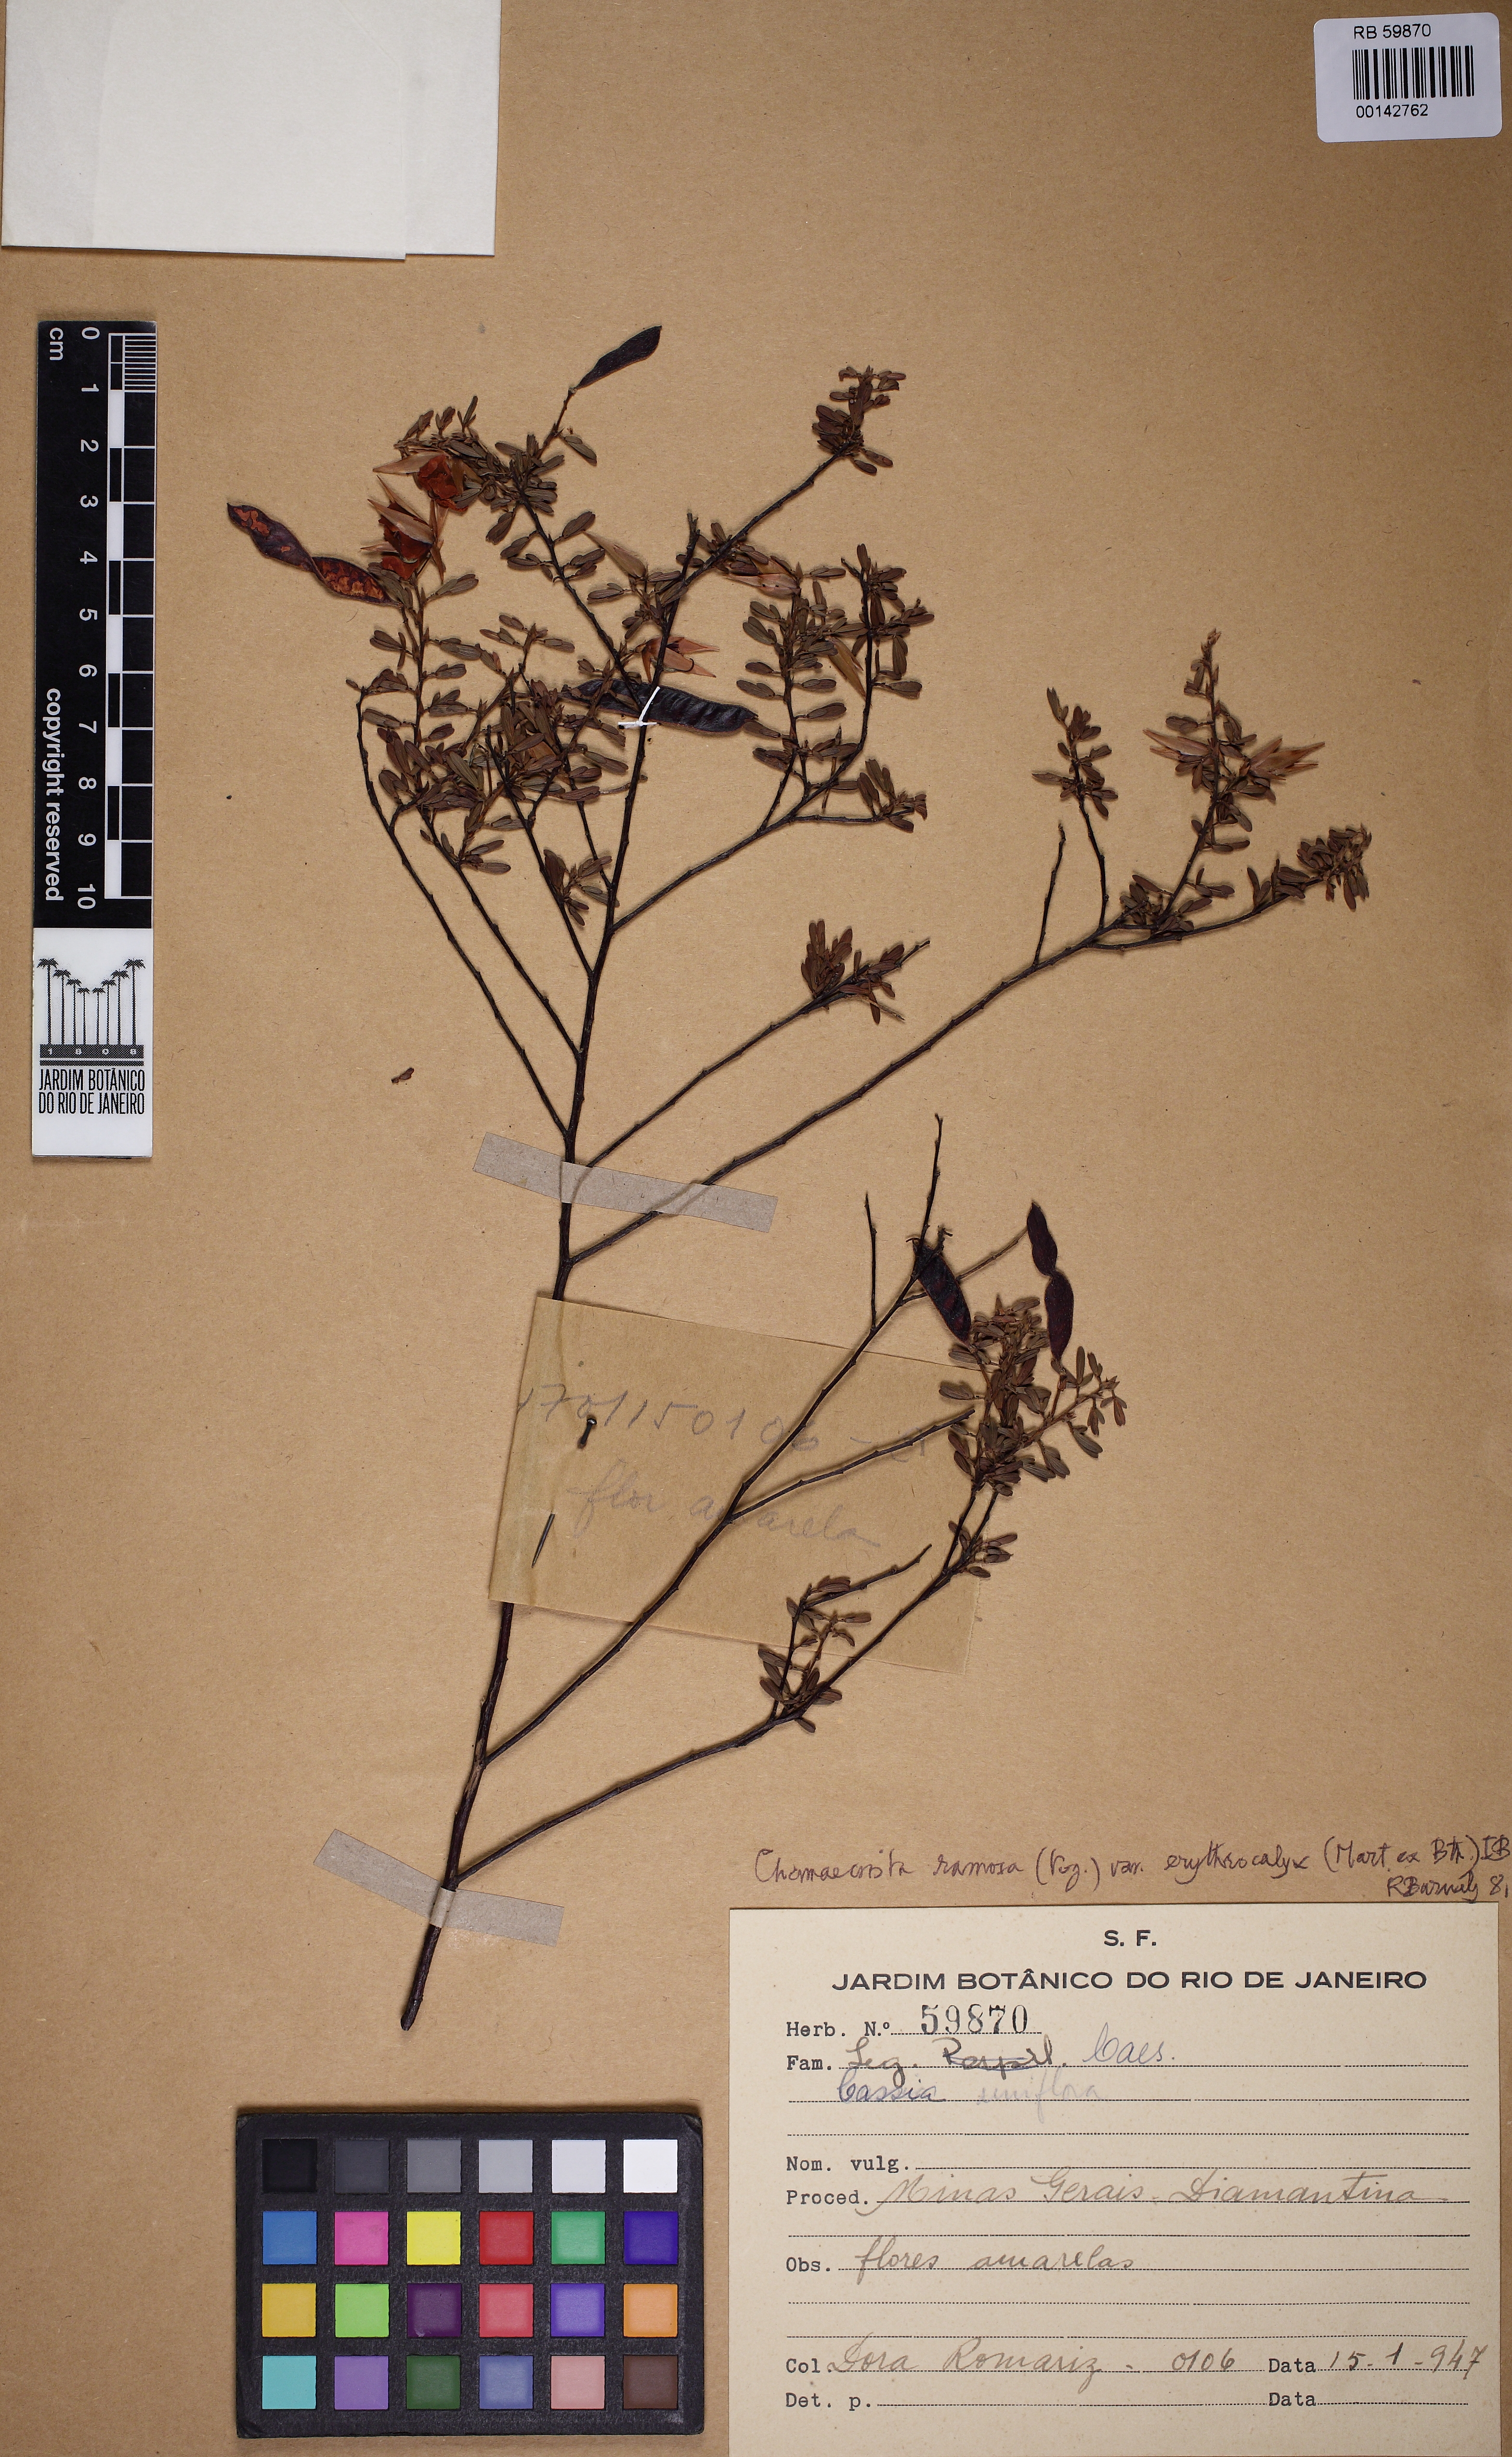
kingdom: Plantae
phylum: Tracheophyta
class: Magnoliopsida
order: Fabales
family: Fabaceae
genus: Chamaecrista
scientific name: Chamaecrista ramosa
